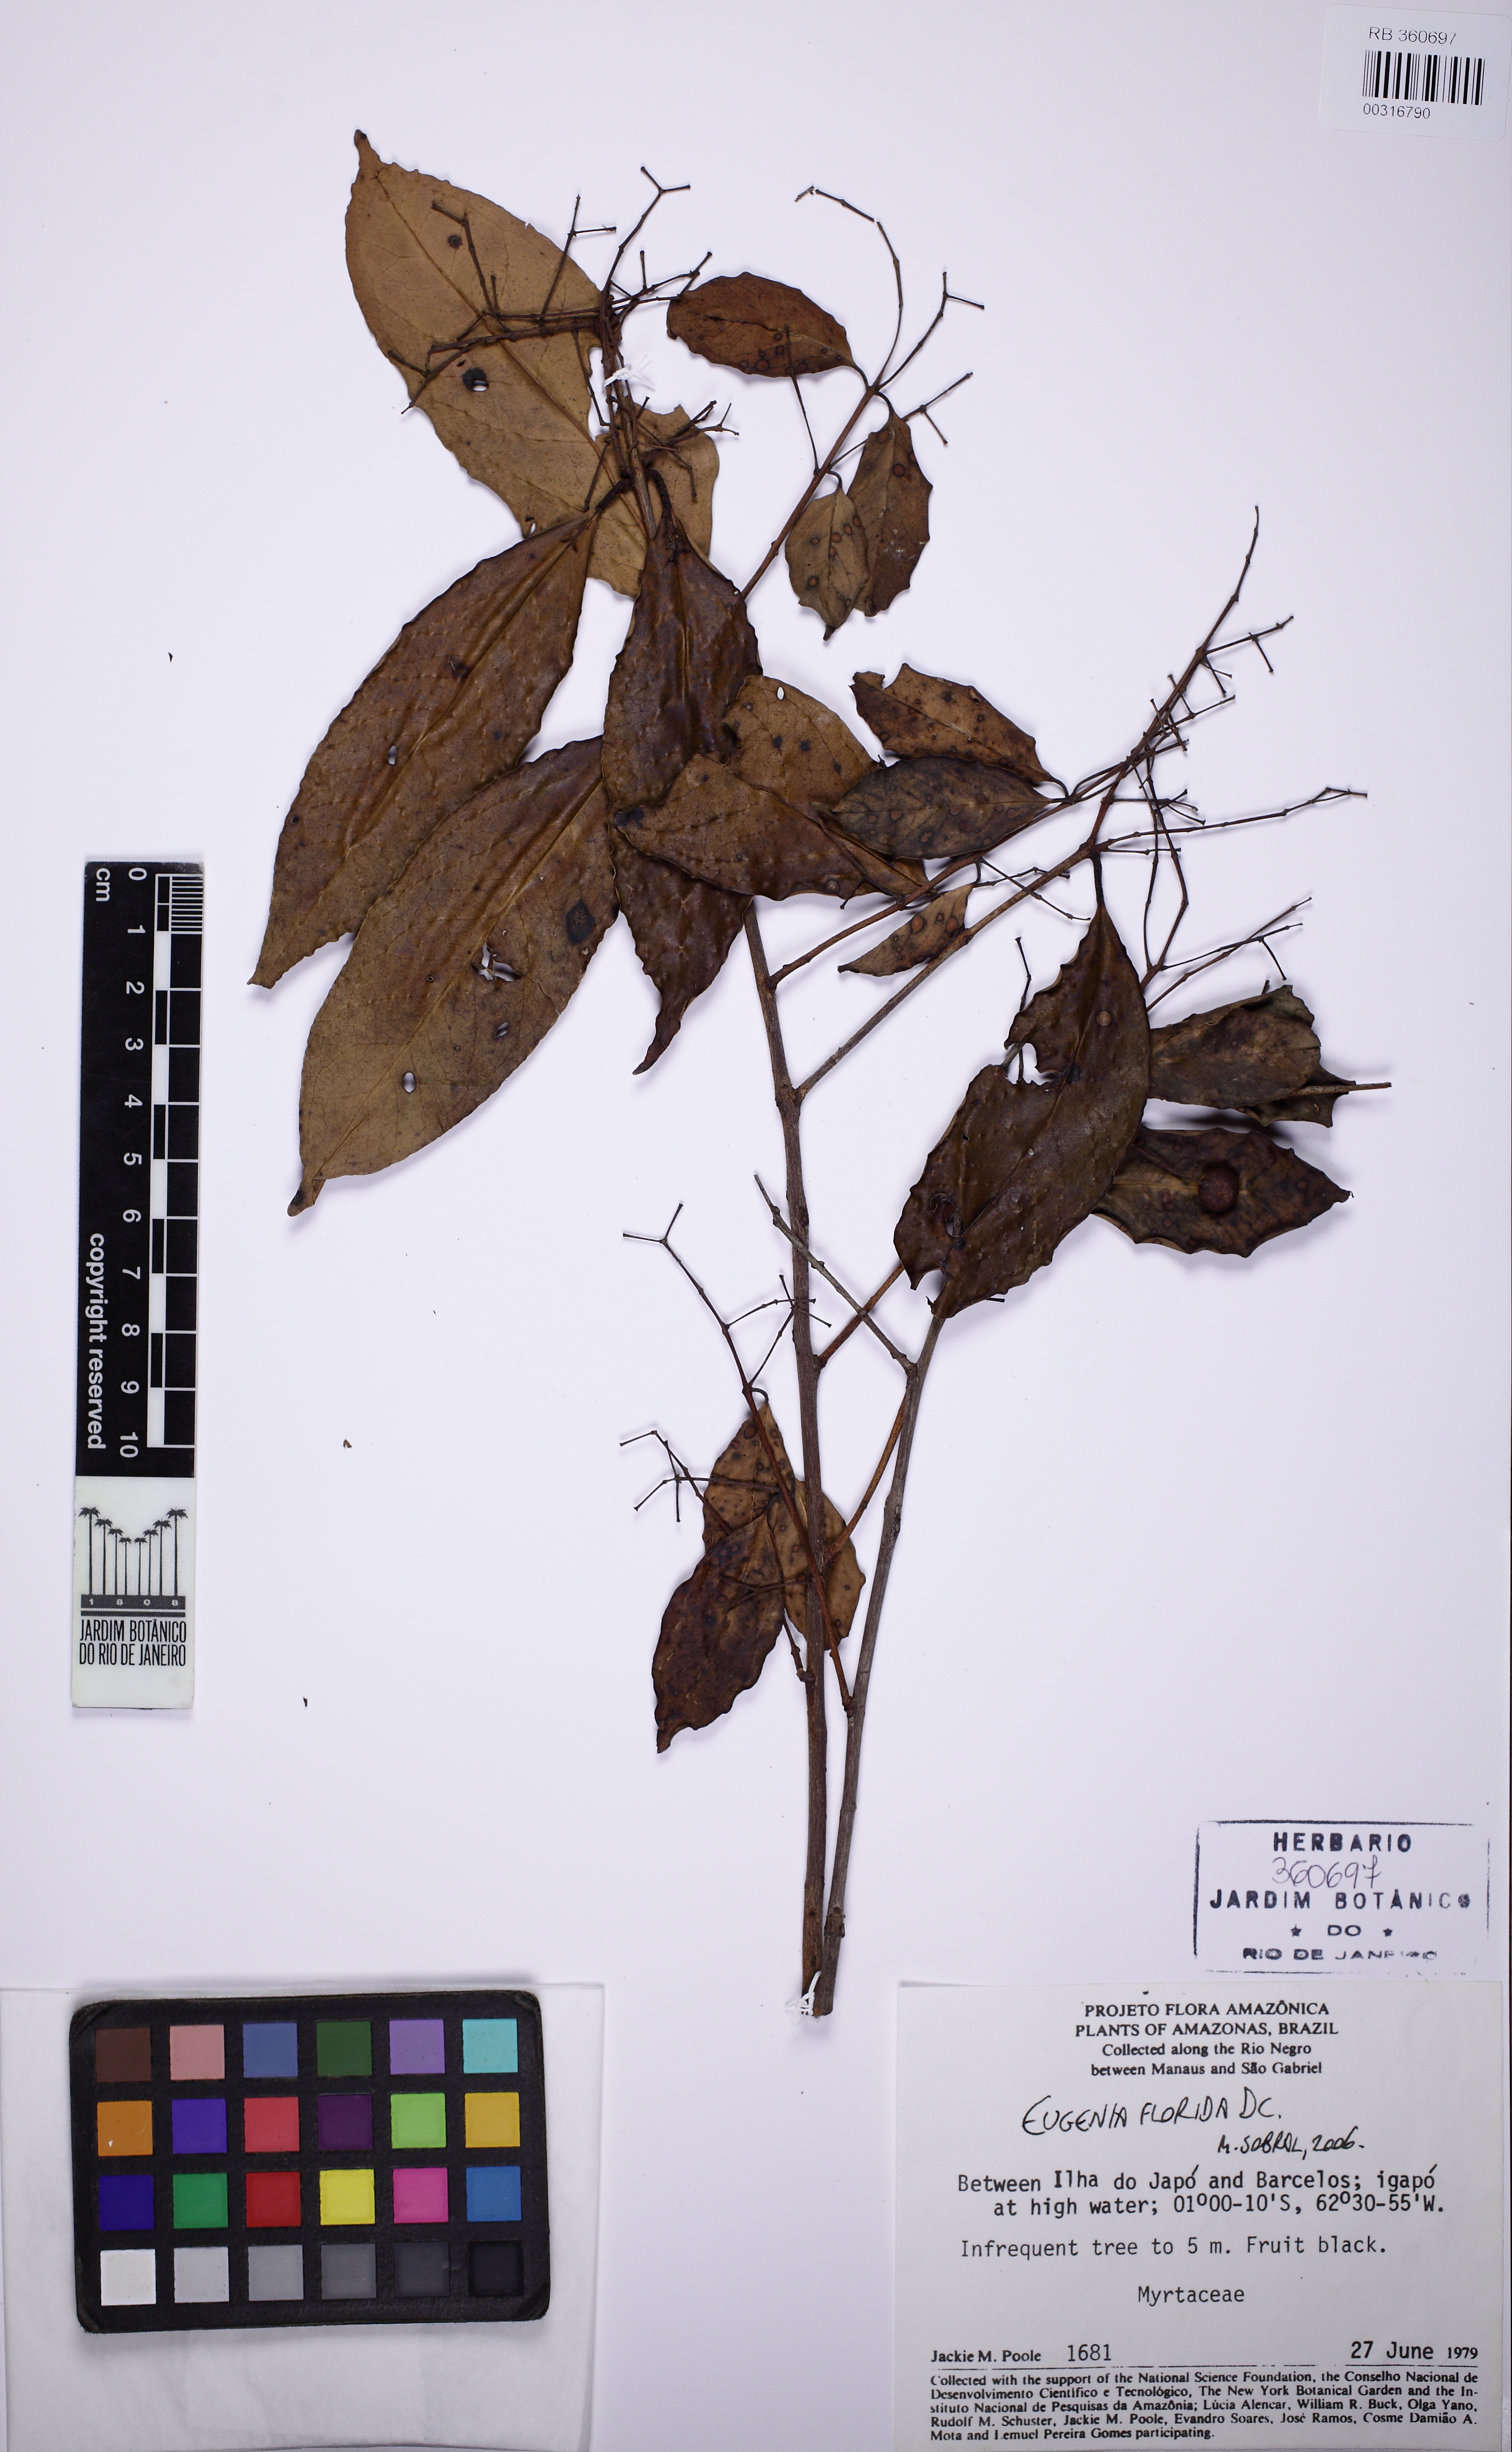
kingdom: Plantae
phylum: Tracheophyta
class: Magnoliopsida
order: Myrtales
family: Myrtaceae
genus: Eugenia
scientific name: Eugenia florida
